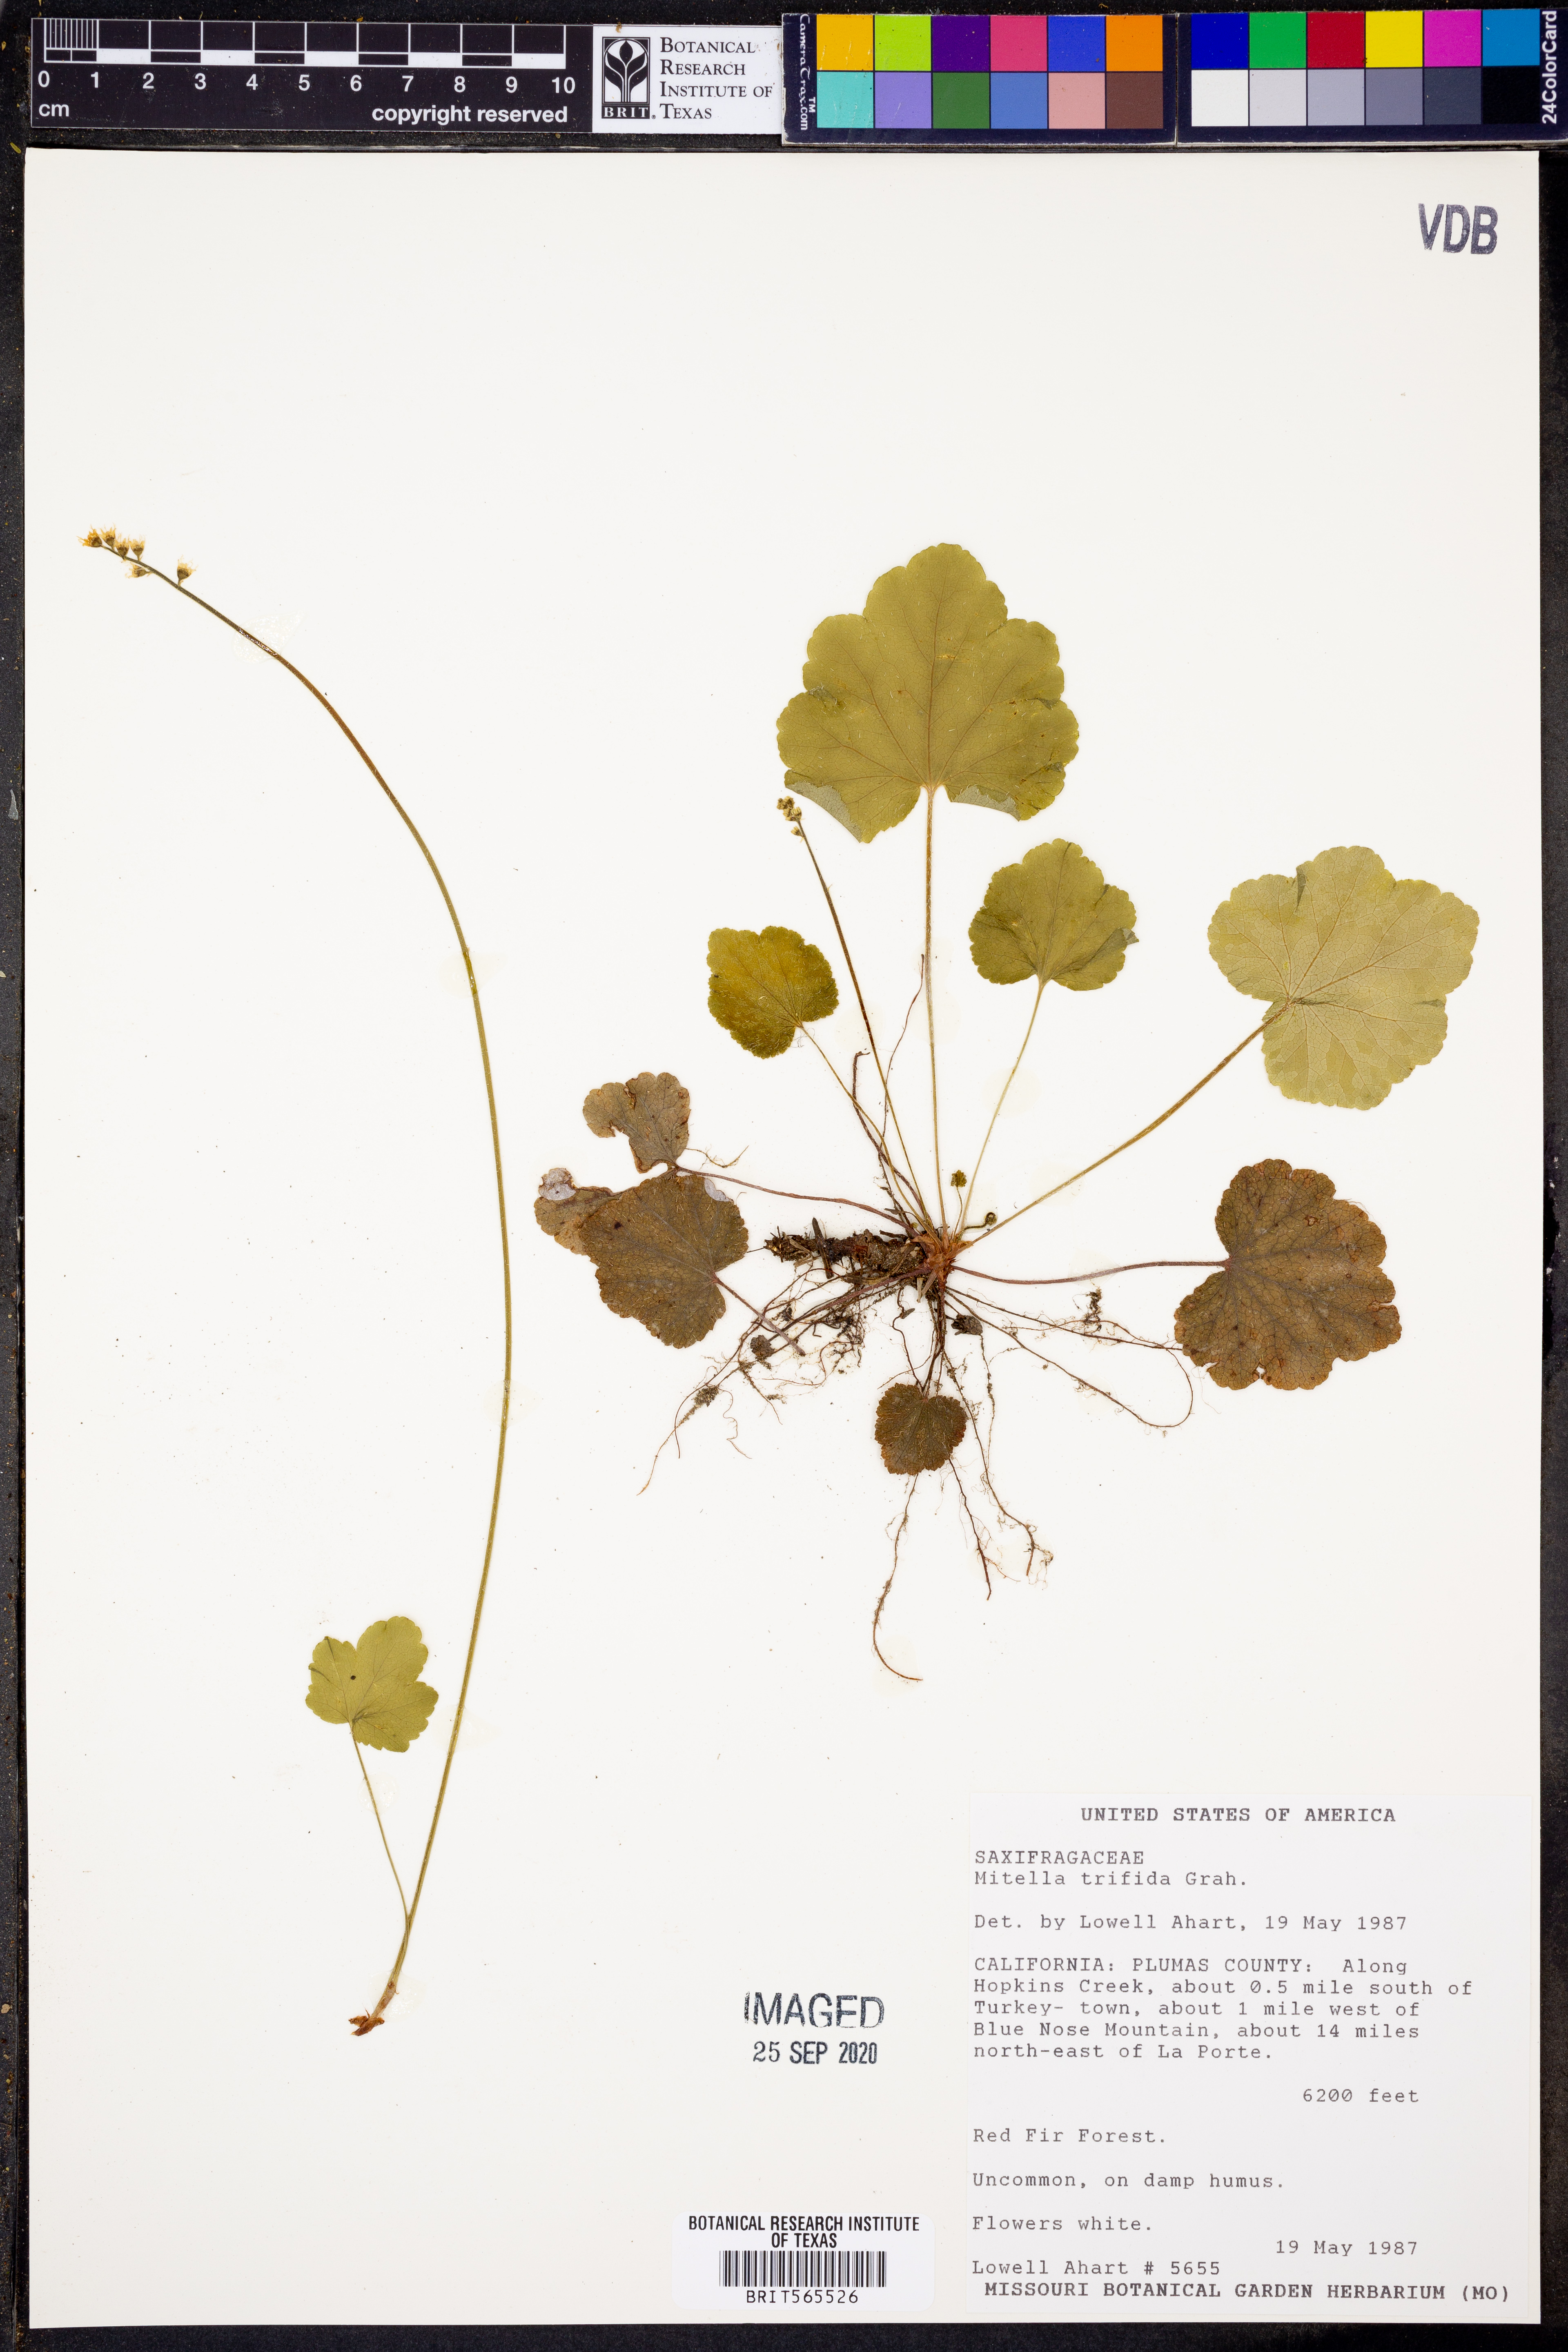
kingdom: Plantae
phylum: Tracheophyta
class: Magnoliopsida
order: Saxifragales
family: Saxifragaceae
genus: Ozomelis
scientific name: Ozomelis trifida
